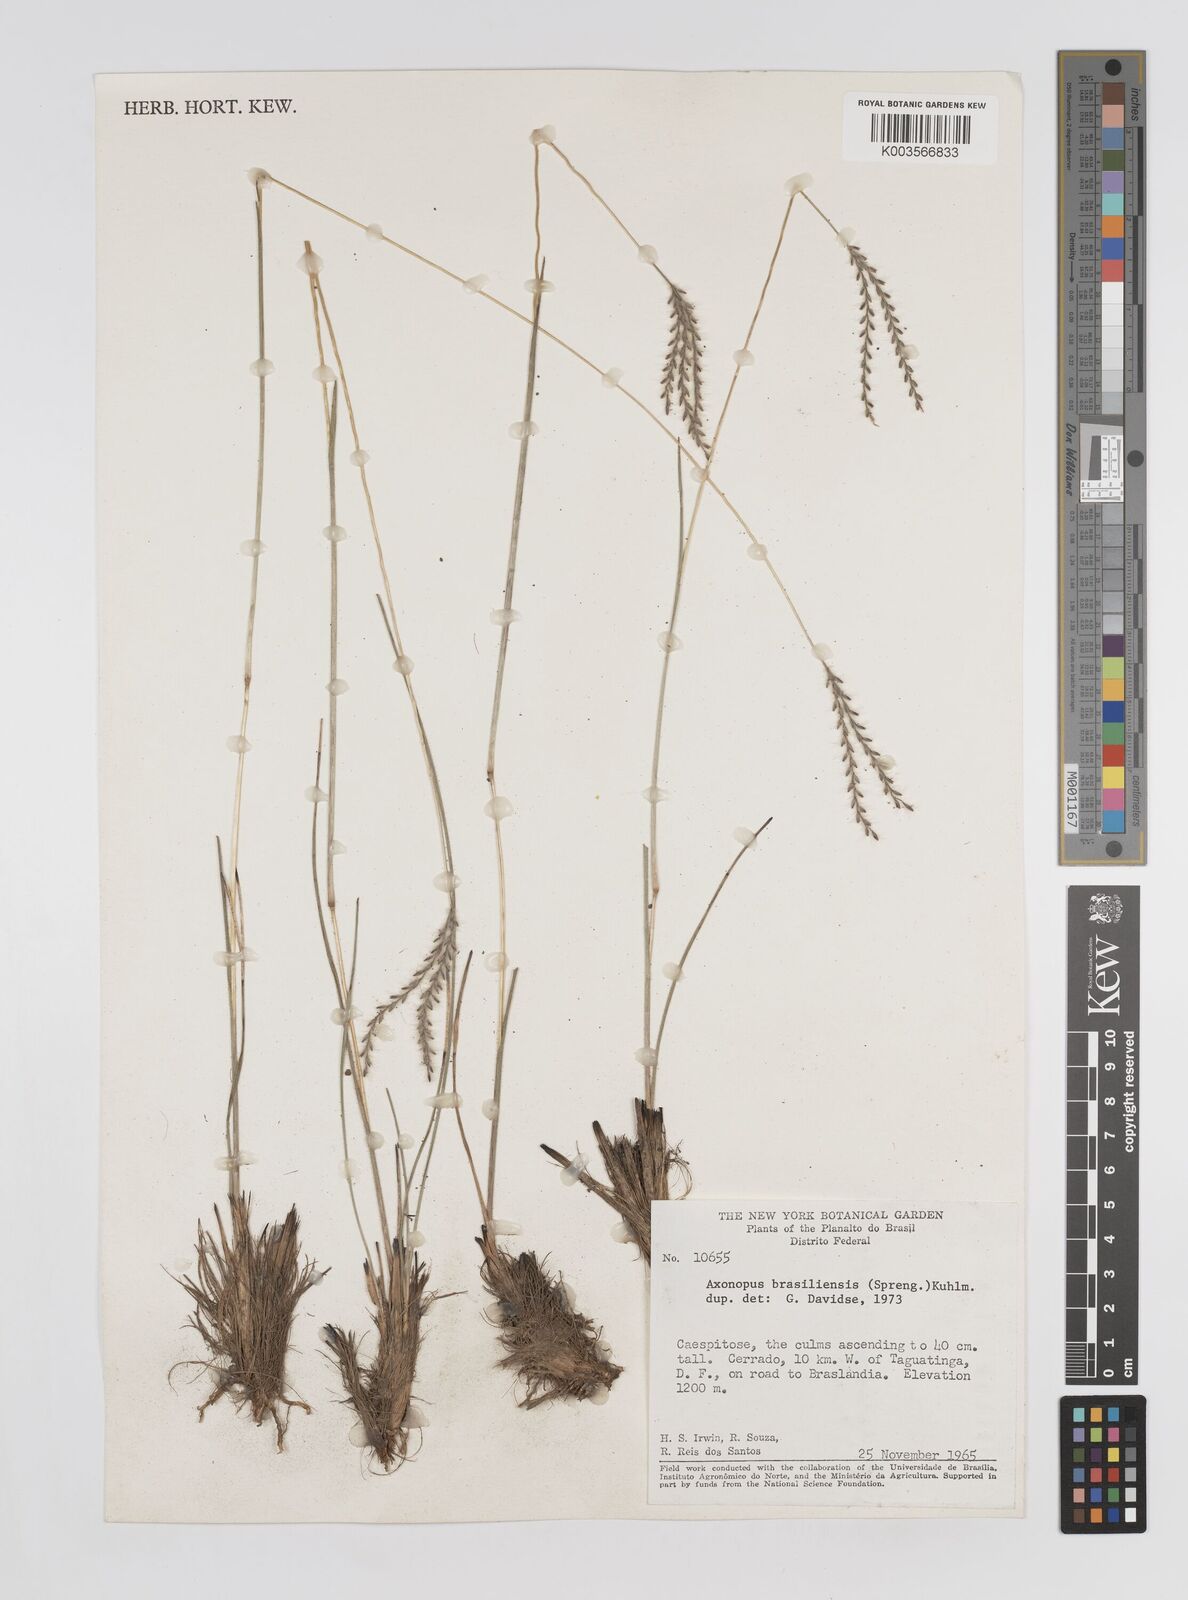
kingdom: Plantae
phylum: Tracheophyta
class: Liliopsida
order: Poales
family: Poaceae
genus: Axonopus
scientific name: Axonopus brasiliensis
